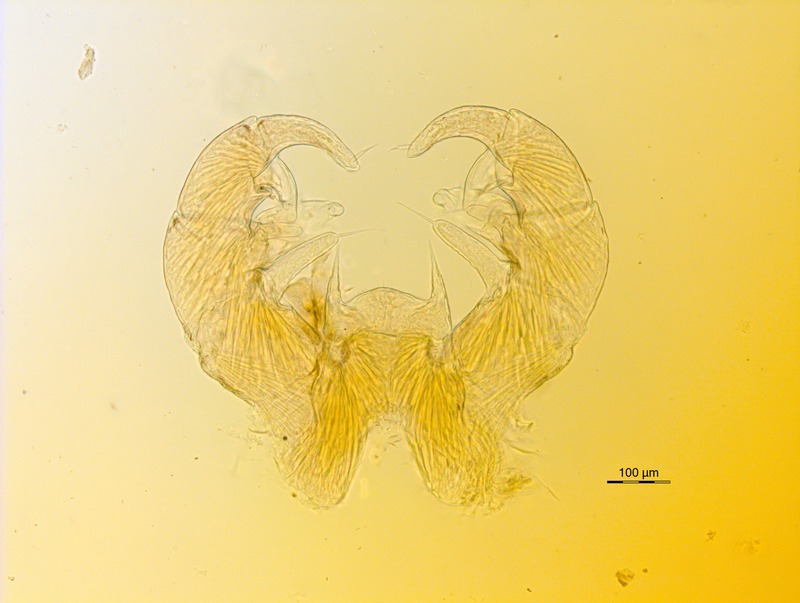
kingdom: Animalia
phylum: Arthropoda
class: Diplopoda
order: Glomerida
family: Glomeridae
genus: Trachysphaera
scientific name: Trachysphaera apenninorum
